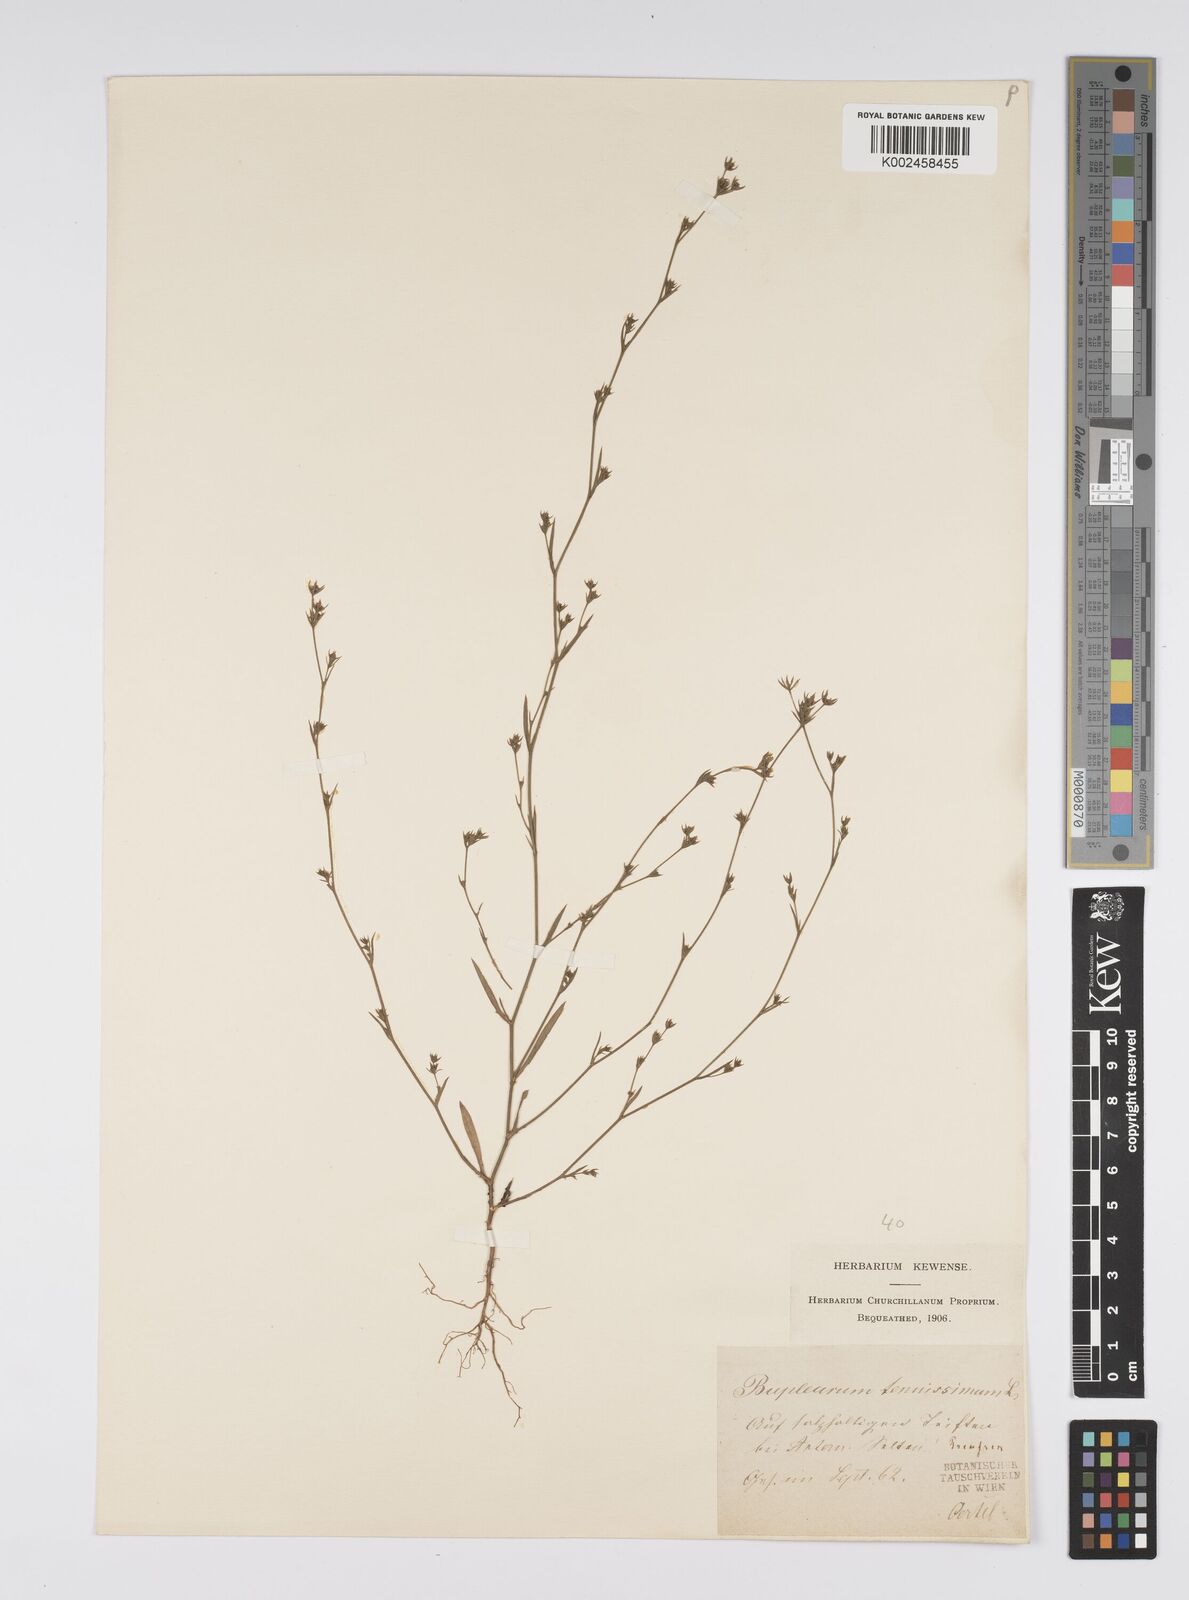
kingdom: Plantae
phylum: Tracheophyta
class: Magnoliopsida
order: Apiales
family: Apiaceae
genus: Bupleurum
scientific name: Bupleurum tenuissimum
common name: Slender hare's-ear
